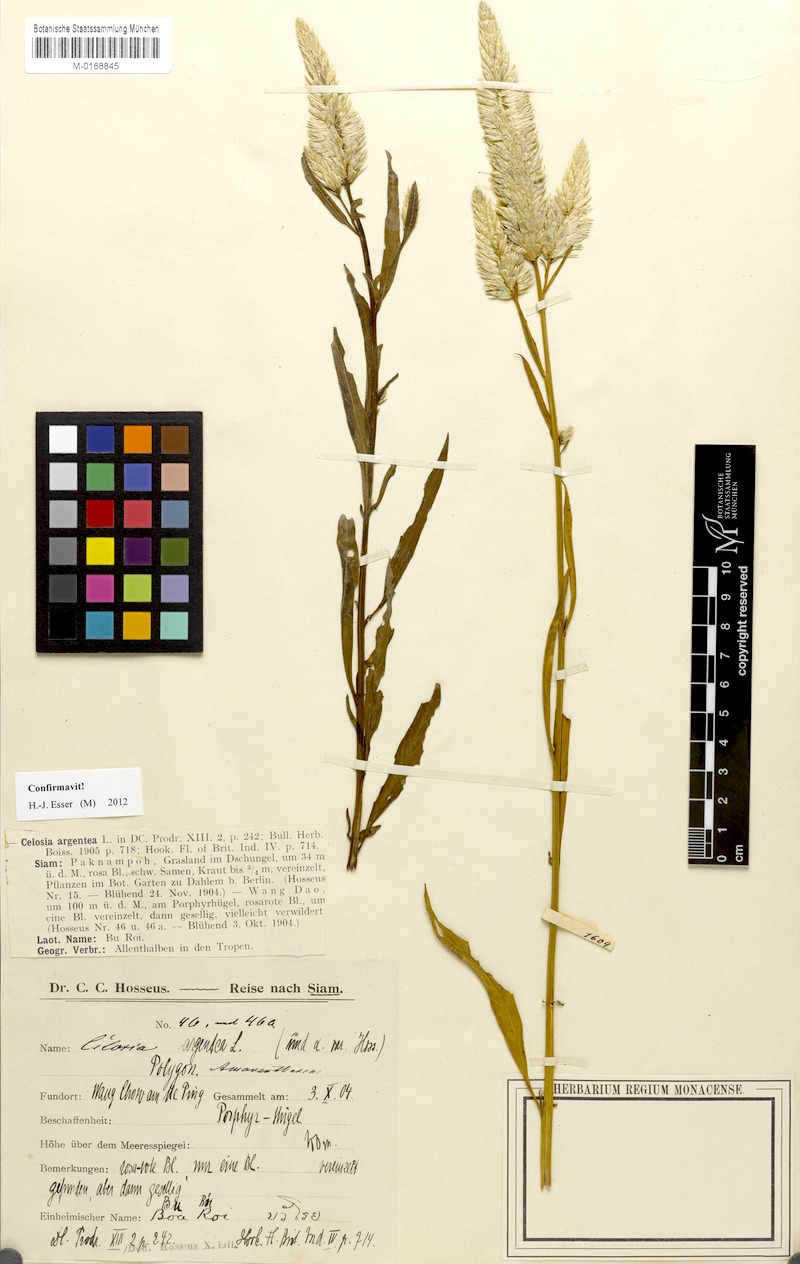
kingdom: Plantae
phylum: Tracheophyta
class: Magnoliopsida
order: Caryophyllales
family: Amaranthaceae
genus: Celosia
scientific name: Celosia argentea
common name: Feather cockscomb
